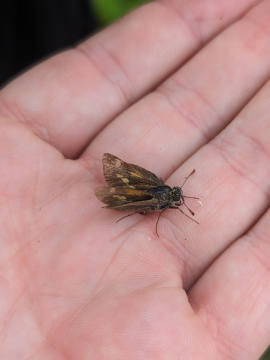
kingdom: Animalia
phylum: Arthropoda
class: Insecta
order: Lepidoptera
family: Hesperiidae
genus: Polites
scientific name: Polites egeremet
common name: Northern Broken-Dash
